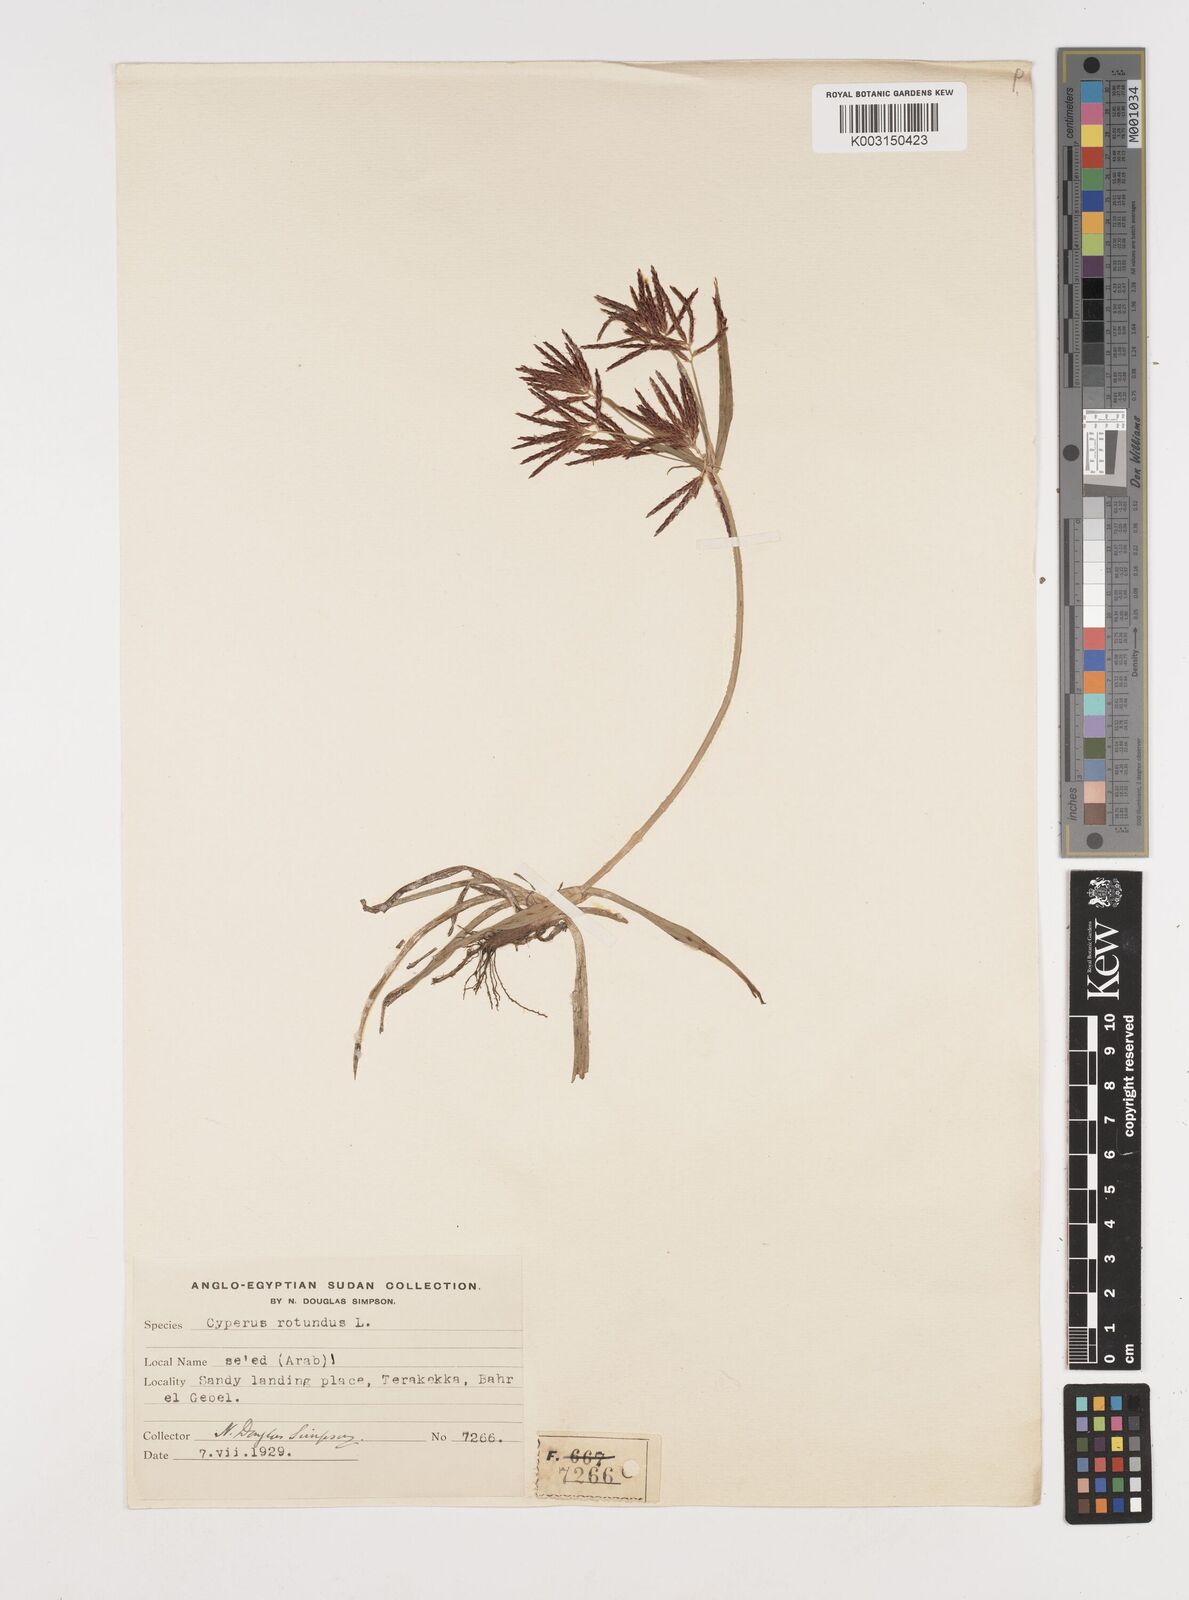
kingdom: Plantae
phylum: Tracheophyta
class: Liliopsida
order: Poales
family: Cyperaceae
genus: Cyperus
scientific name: Cyperus rotundus
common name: Nutgrass
